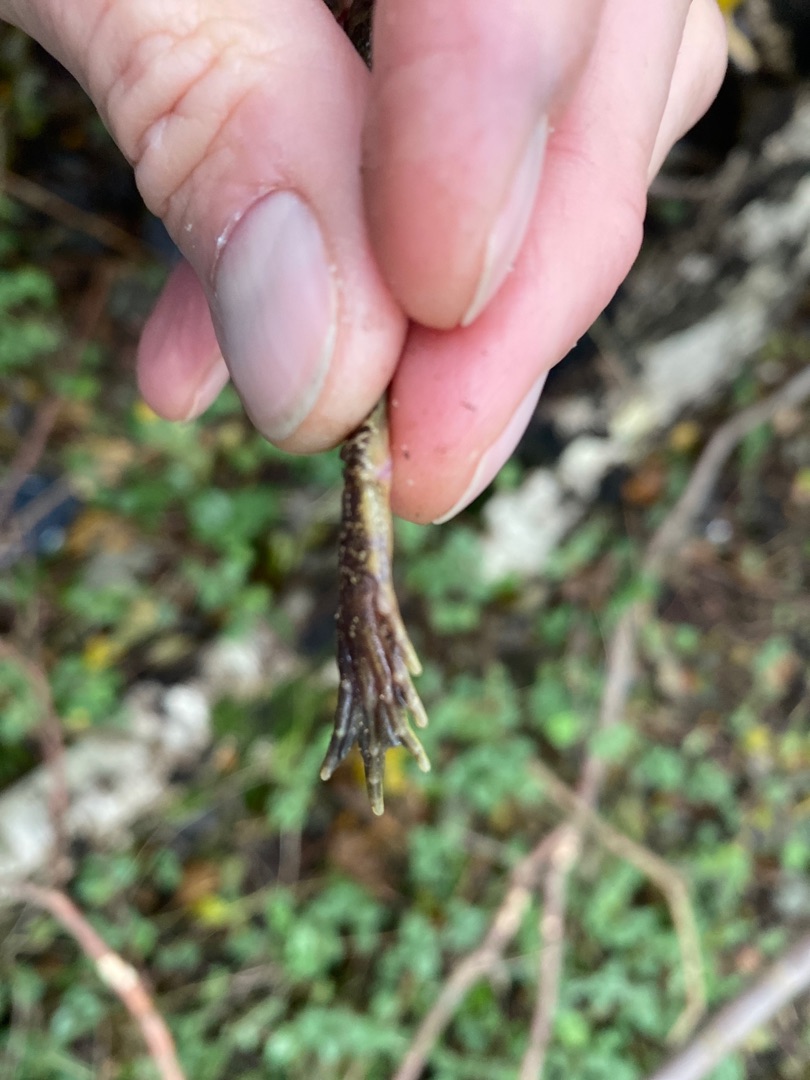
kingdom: Animalia
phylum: Chordata
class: Amphibia
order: Anura
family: Ranidae
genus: Rana
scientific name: Rana temporaria
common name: Butsnudet frø
